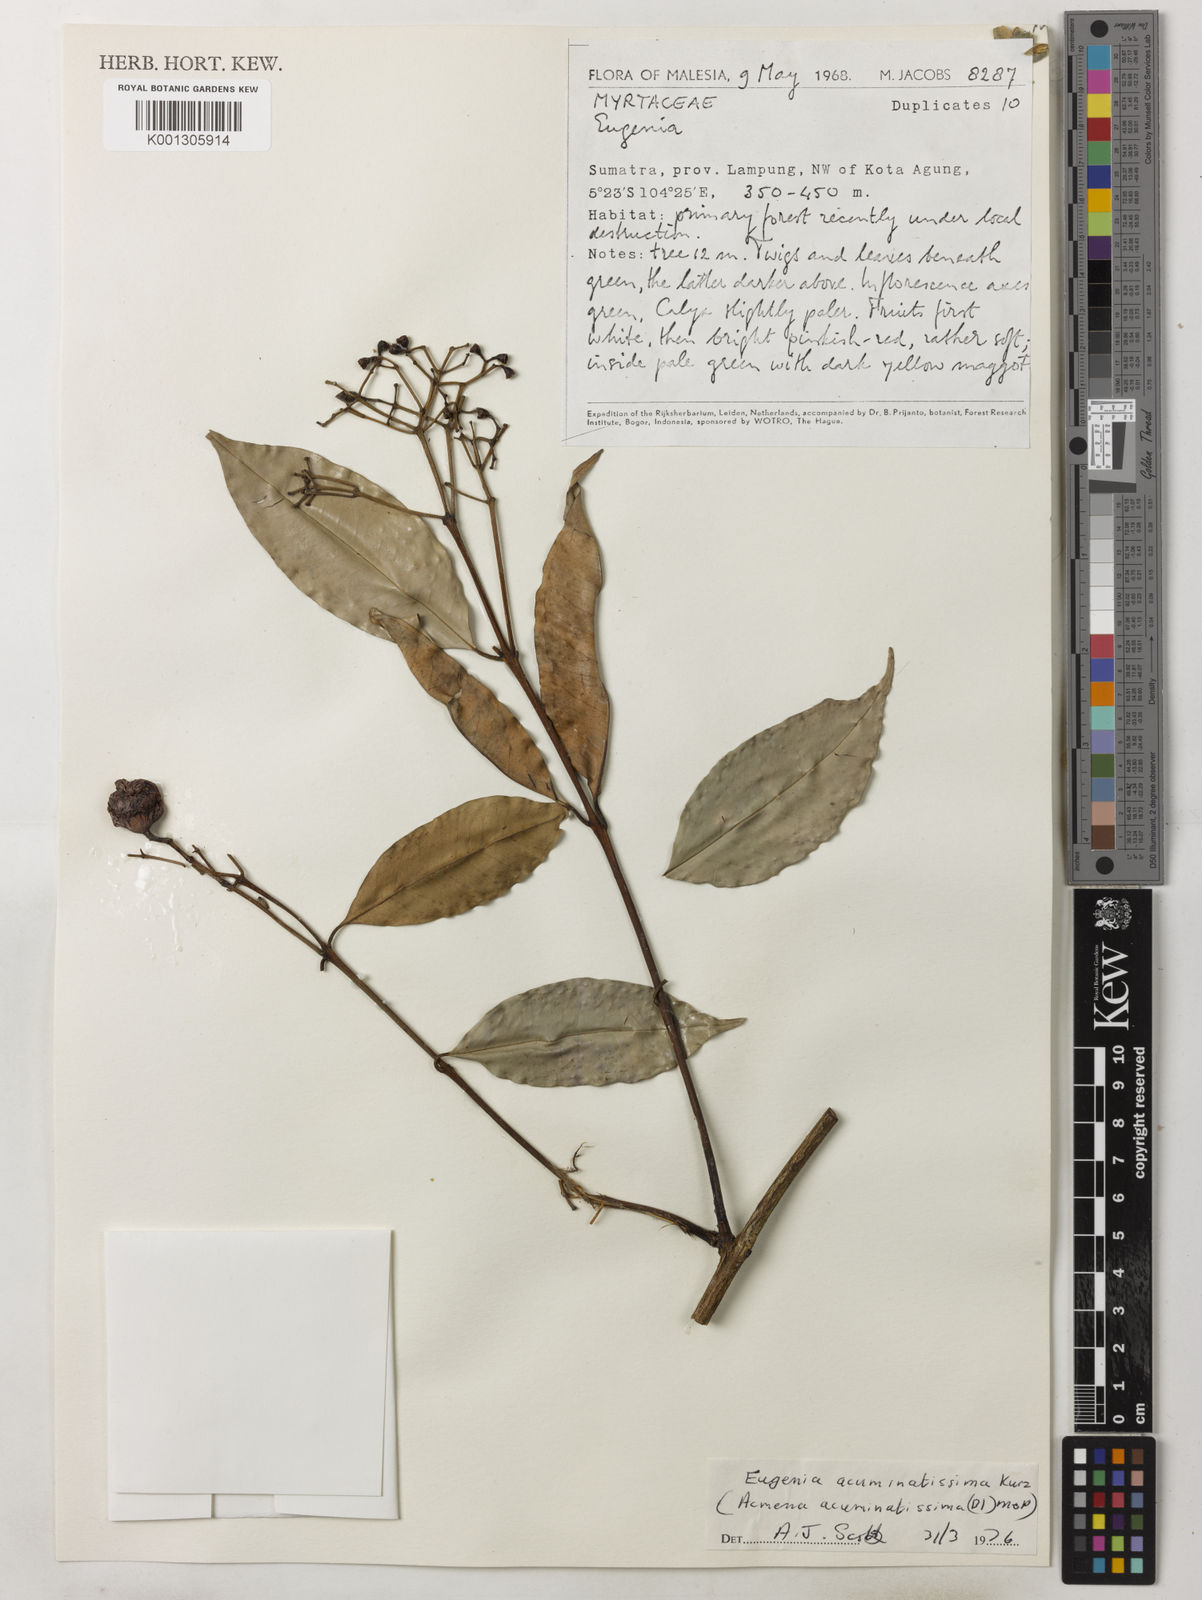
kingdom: Plantae
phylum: Tracheophyta
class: Magnoliopsida
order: Myrtales
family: Myrtaceae
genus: Syzygium
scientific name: Syzygium acuminatissimum
